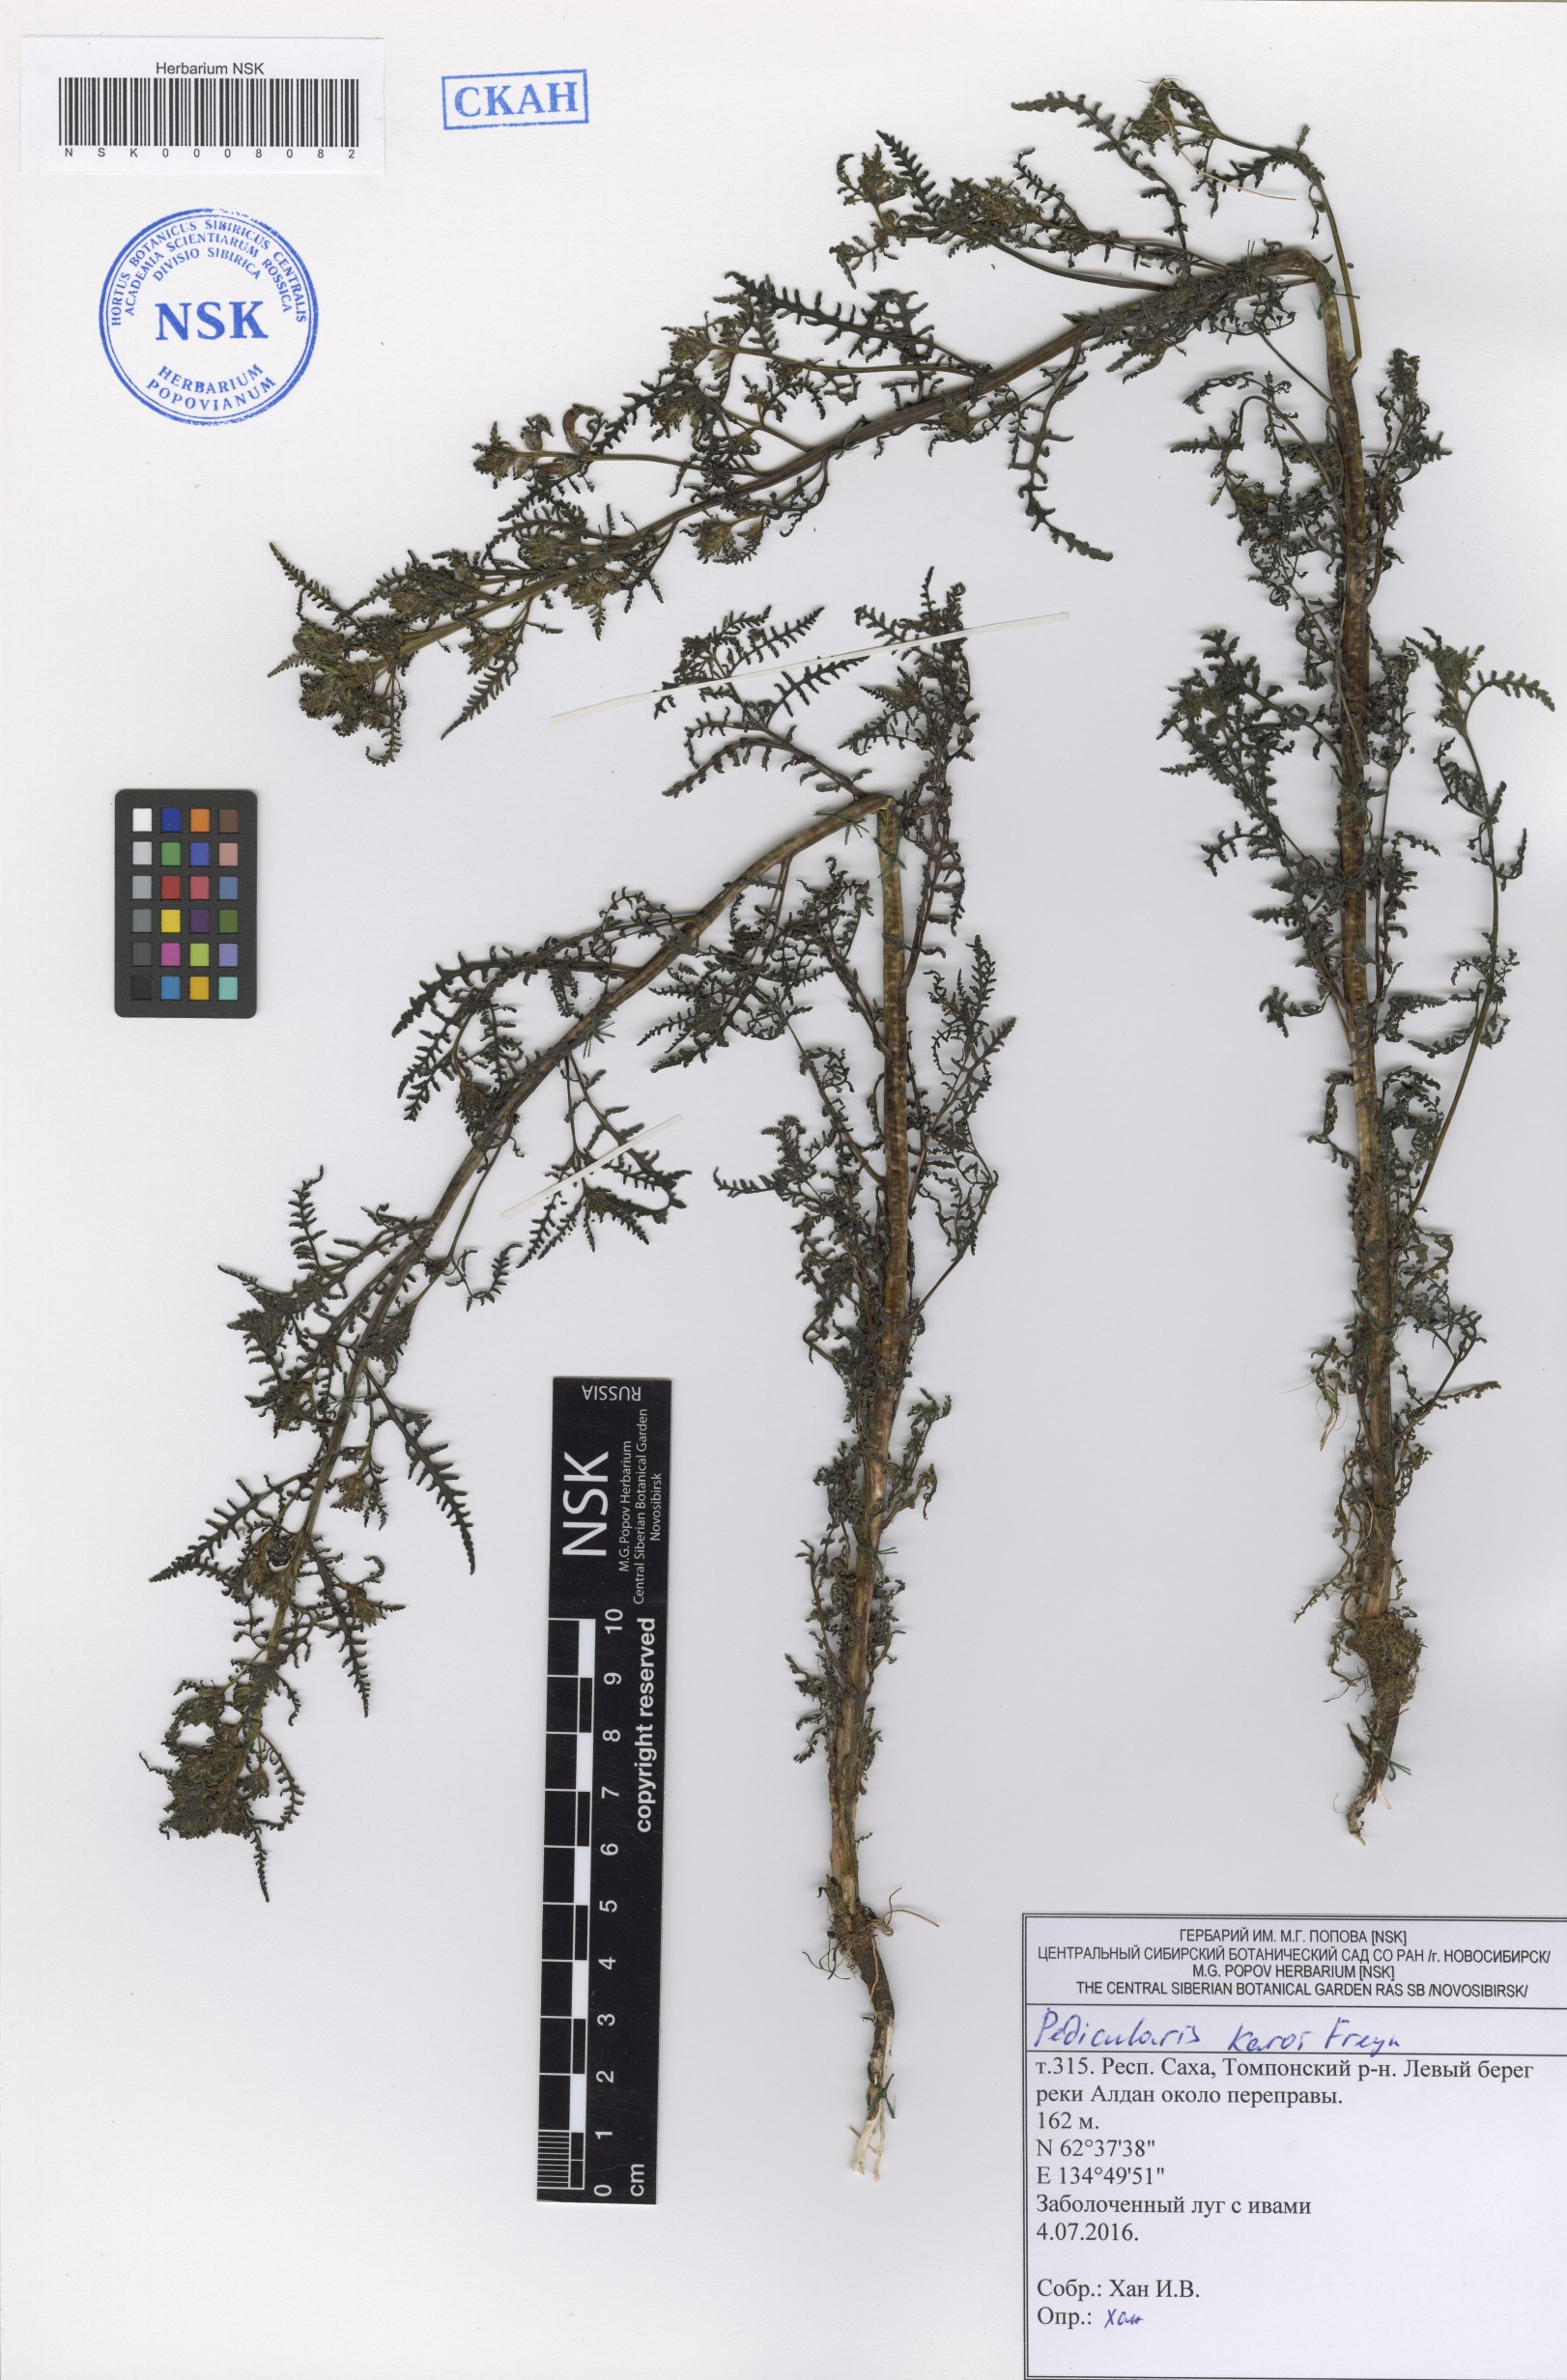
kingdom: Plantae
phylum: Tracheophyta
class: Magnoliopsida
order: Lamiales
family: Orobanchaceae
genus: Pedicularis
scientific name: Pedicularis karoi
